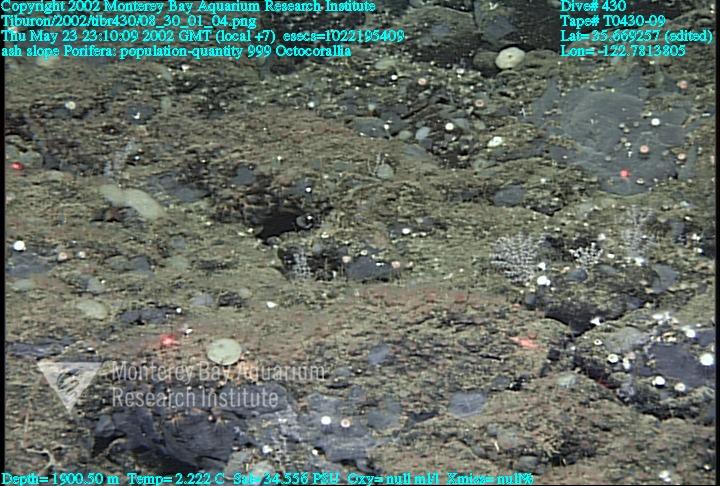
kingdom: Animalia
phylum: Porifera
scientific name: Porifera
